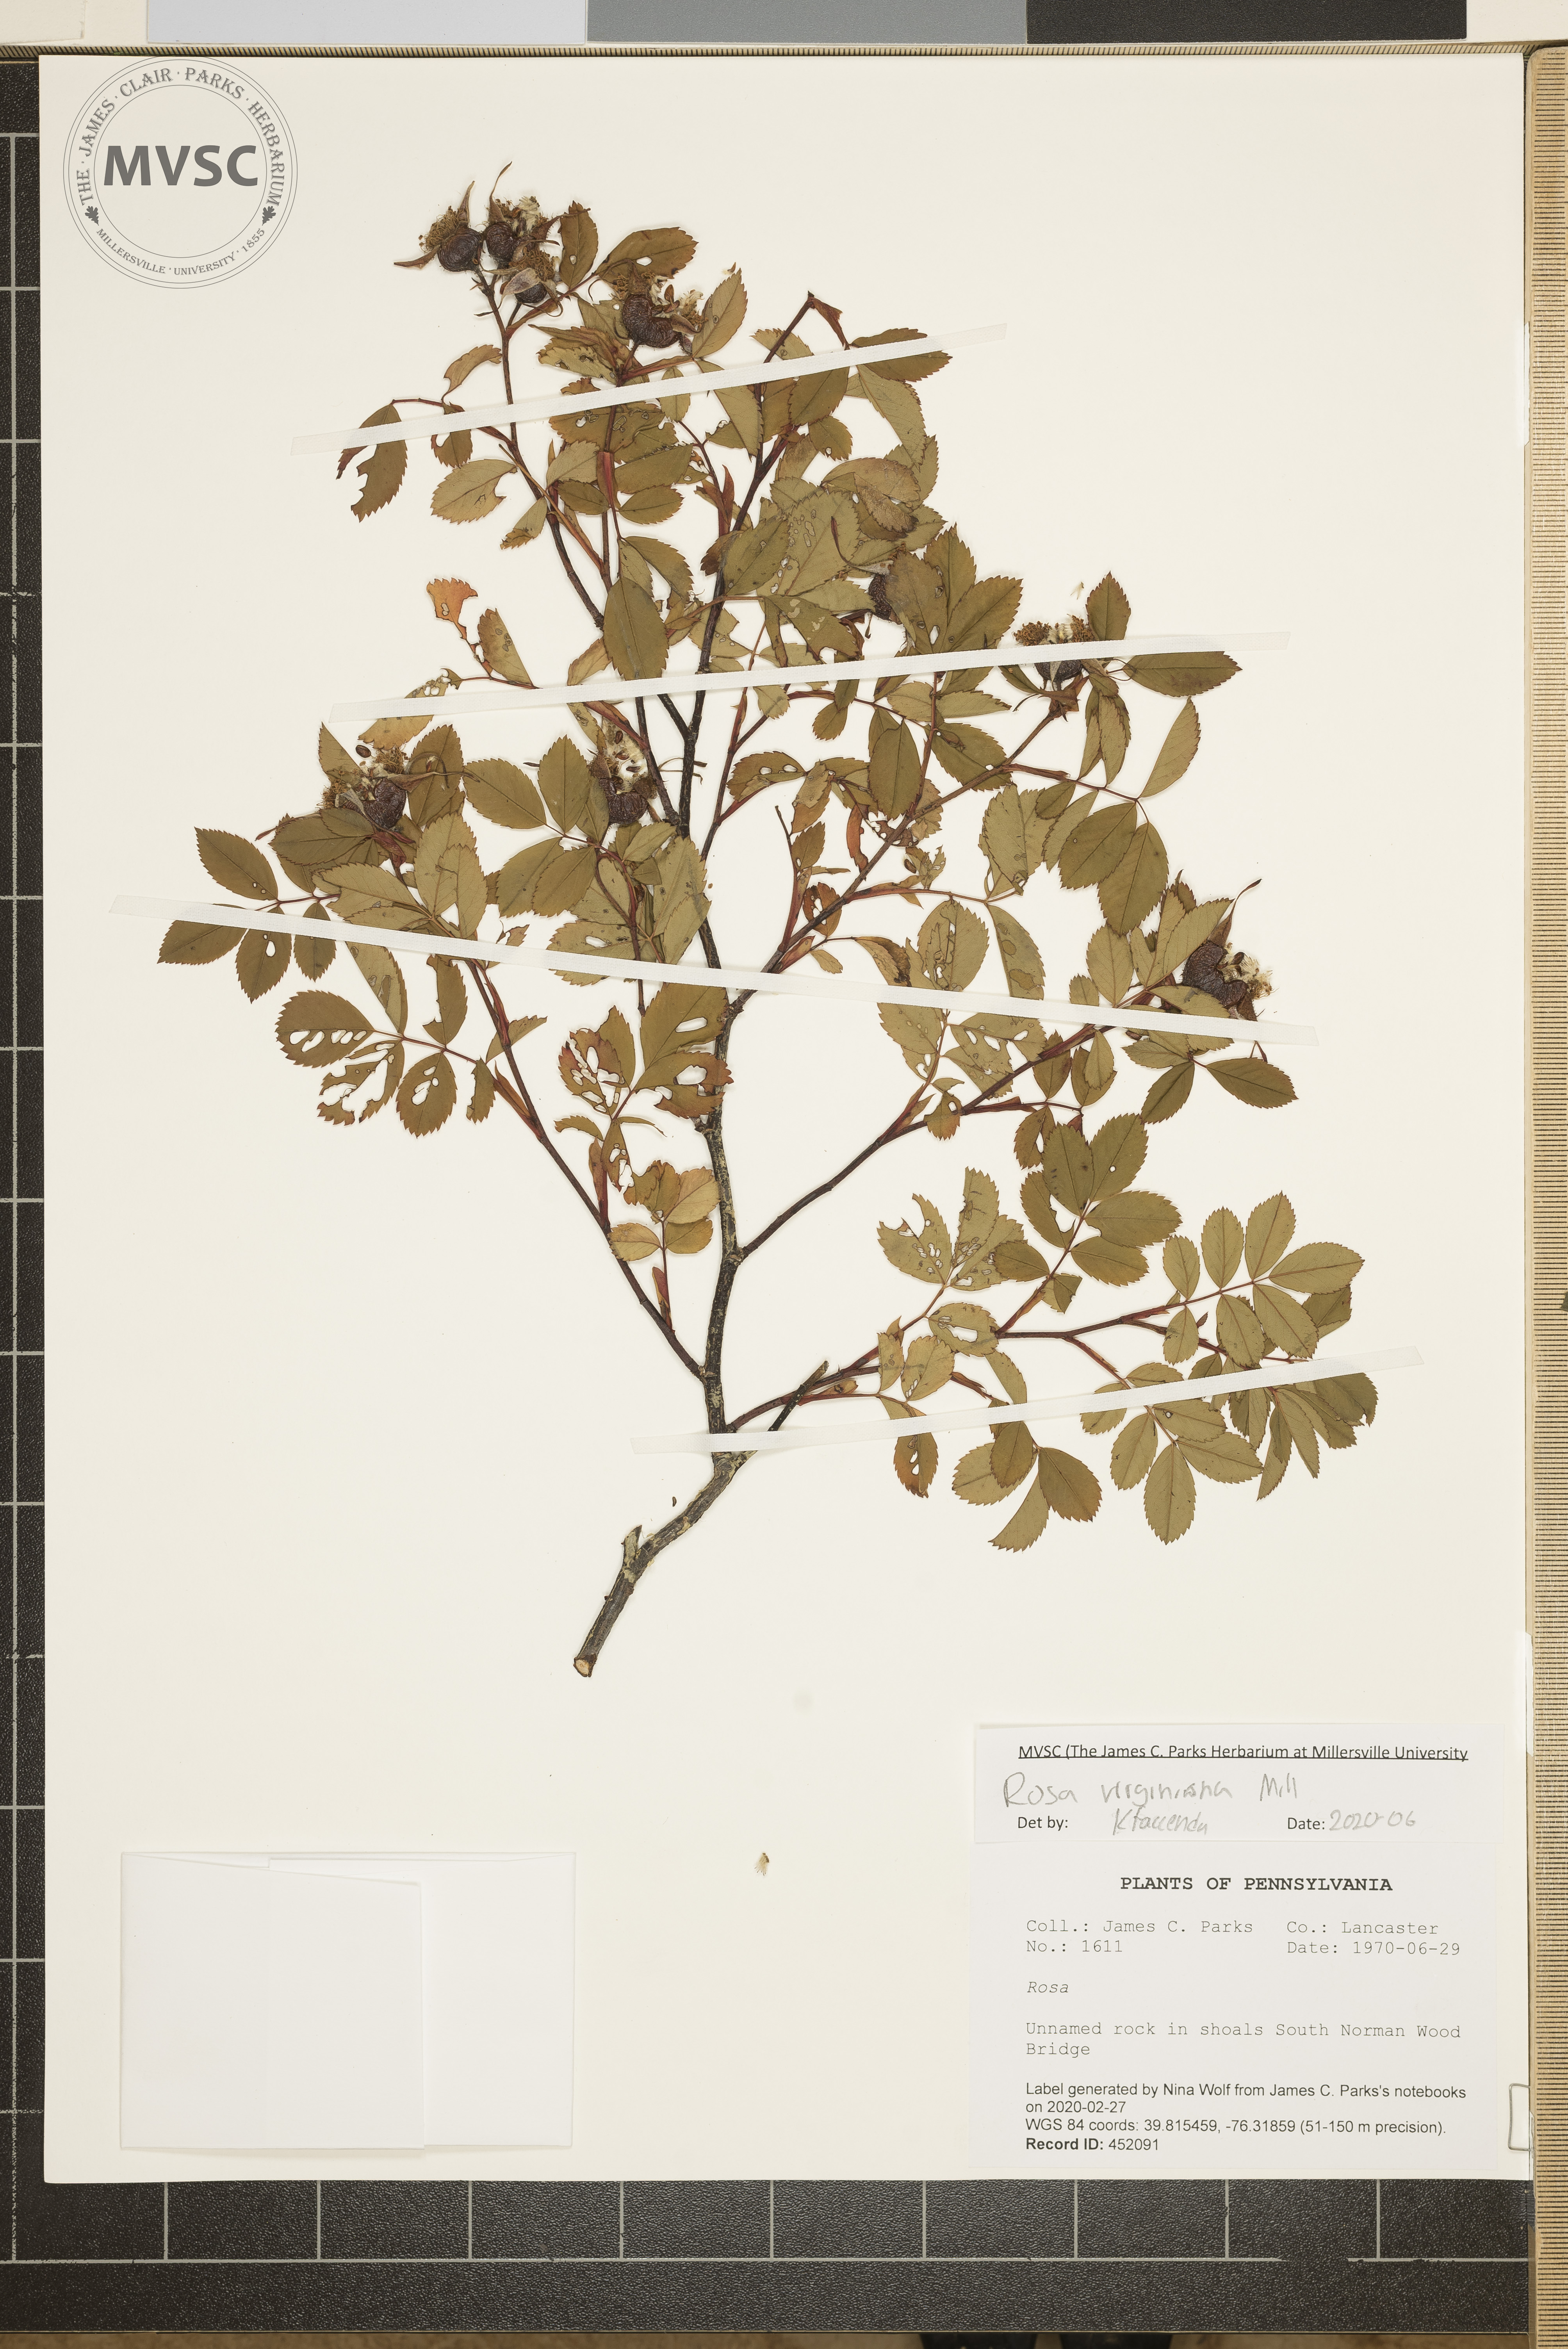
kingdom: Plantae
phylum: Tracheophyta
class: Magnoliopsida
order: Rosales
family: Rosaceae
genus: Rosa
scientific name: Rosa carolina
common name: Pasture rose
